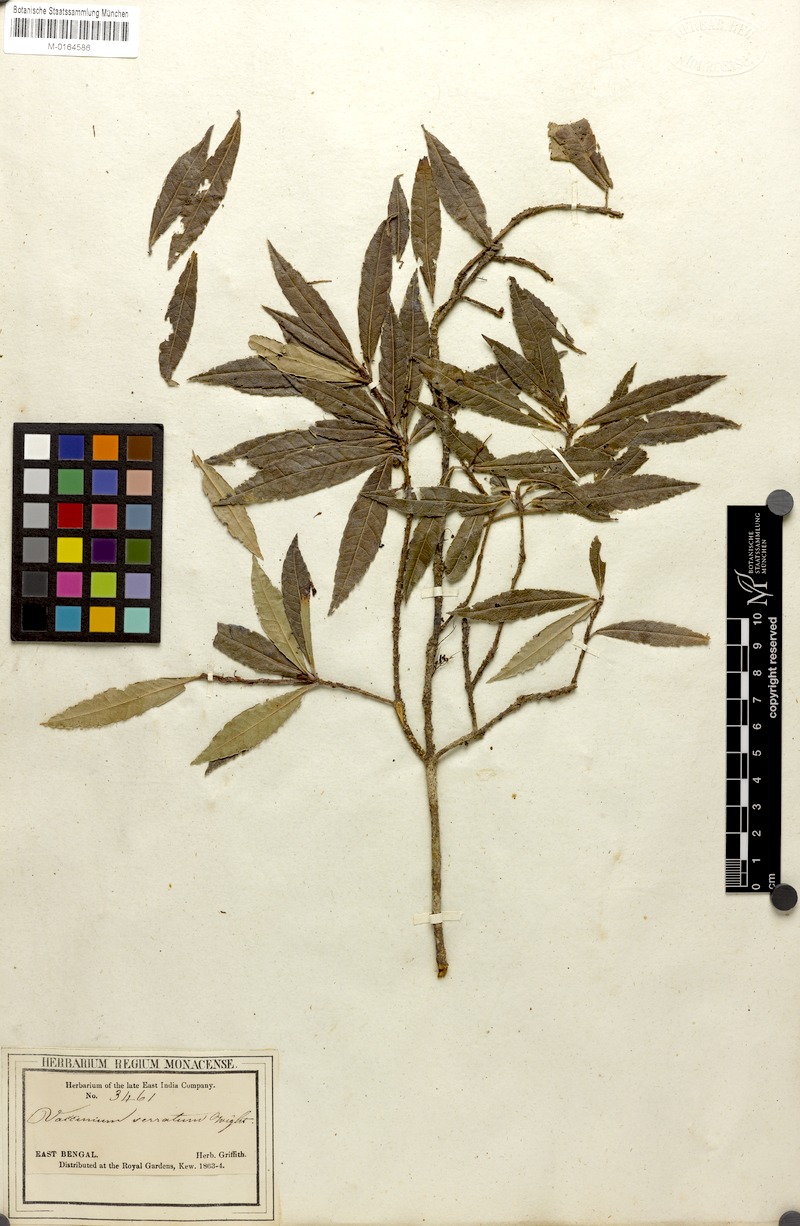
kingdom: Plantae
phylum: Tracheophyta
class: Magnoliopsida
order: Ericales
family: Ericaceae
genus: Vaccinium
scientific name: Vaccinium vacciniaceum
